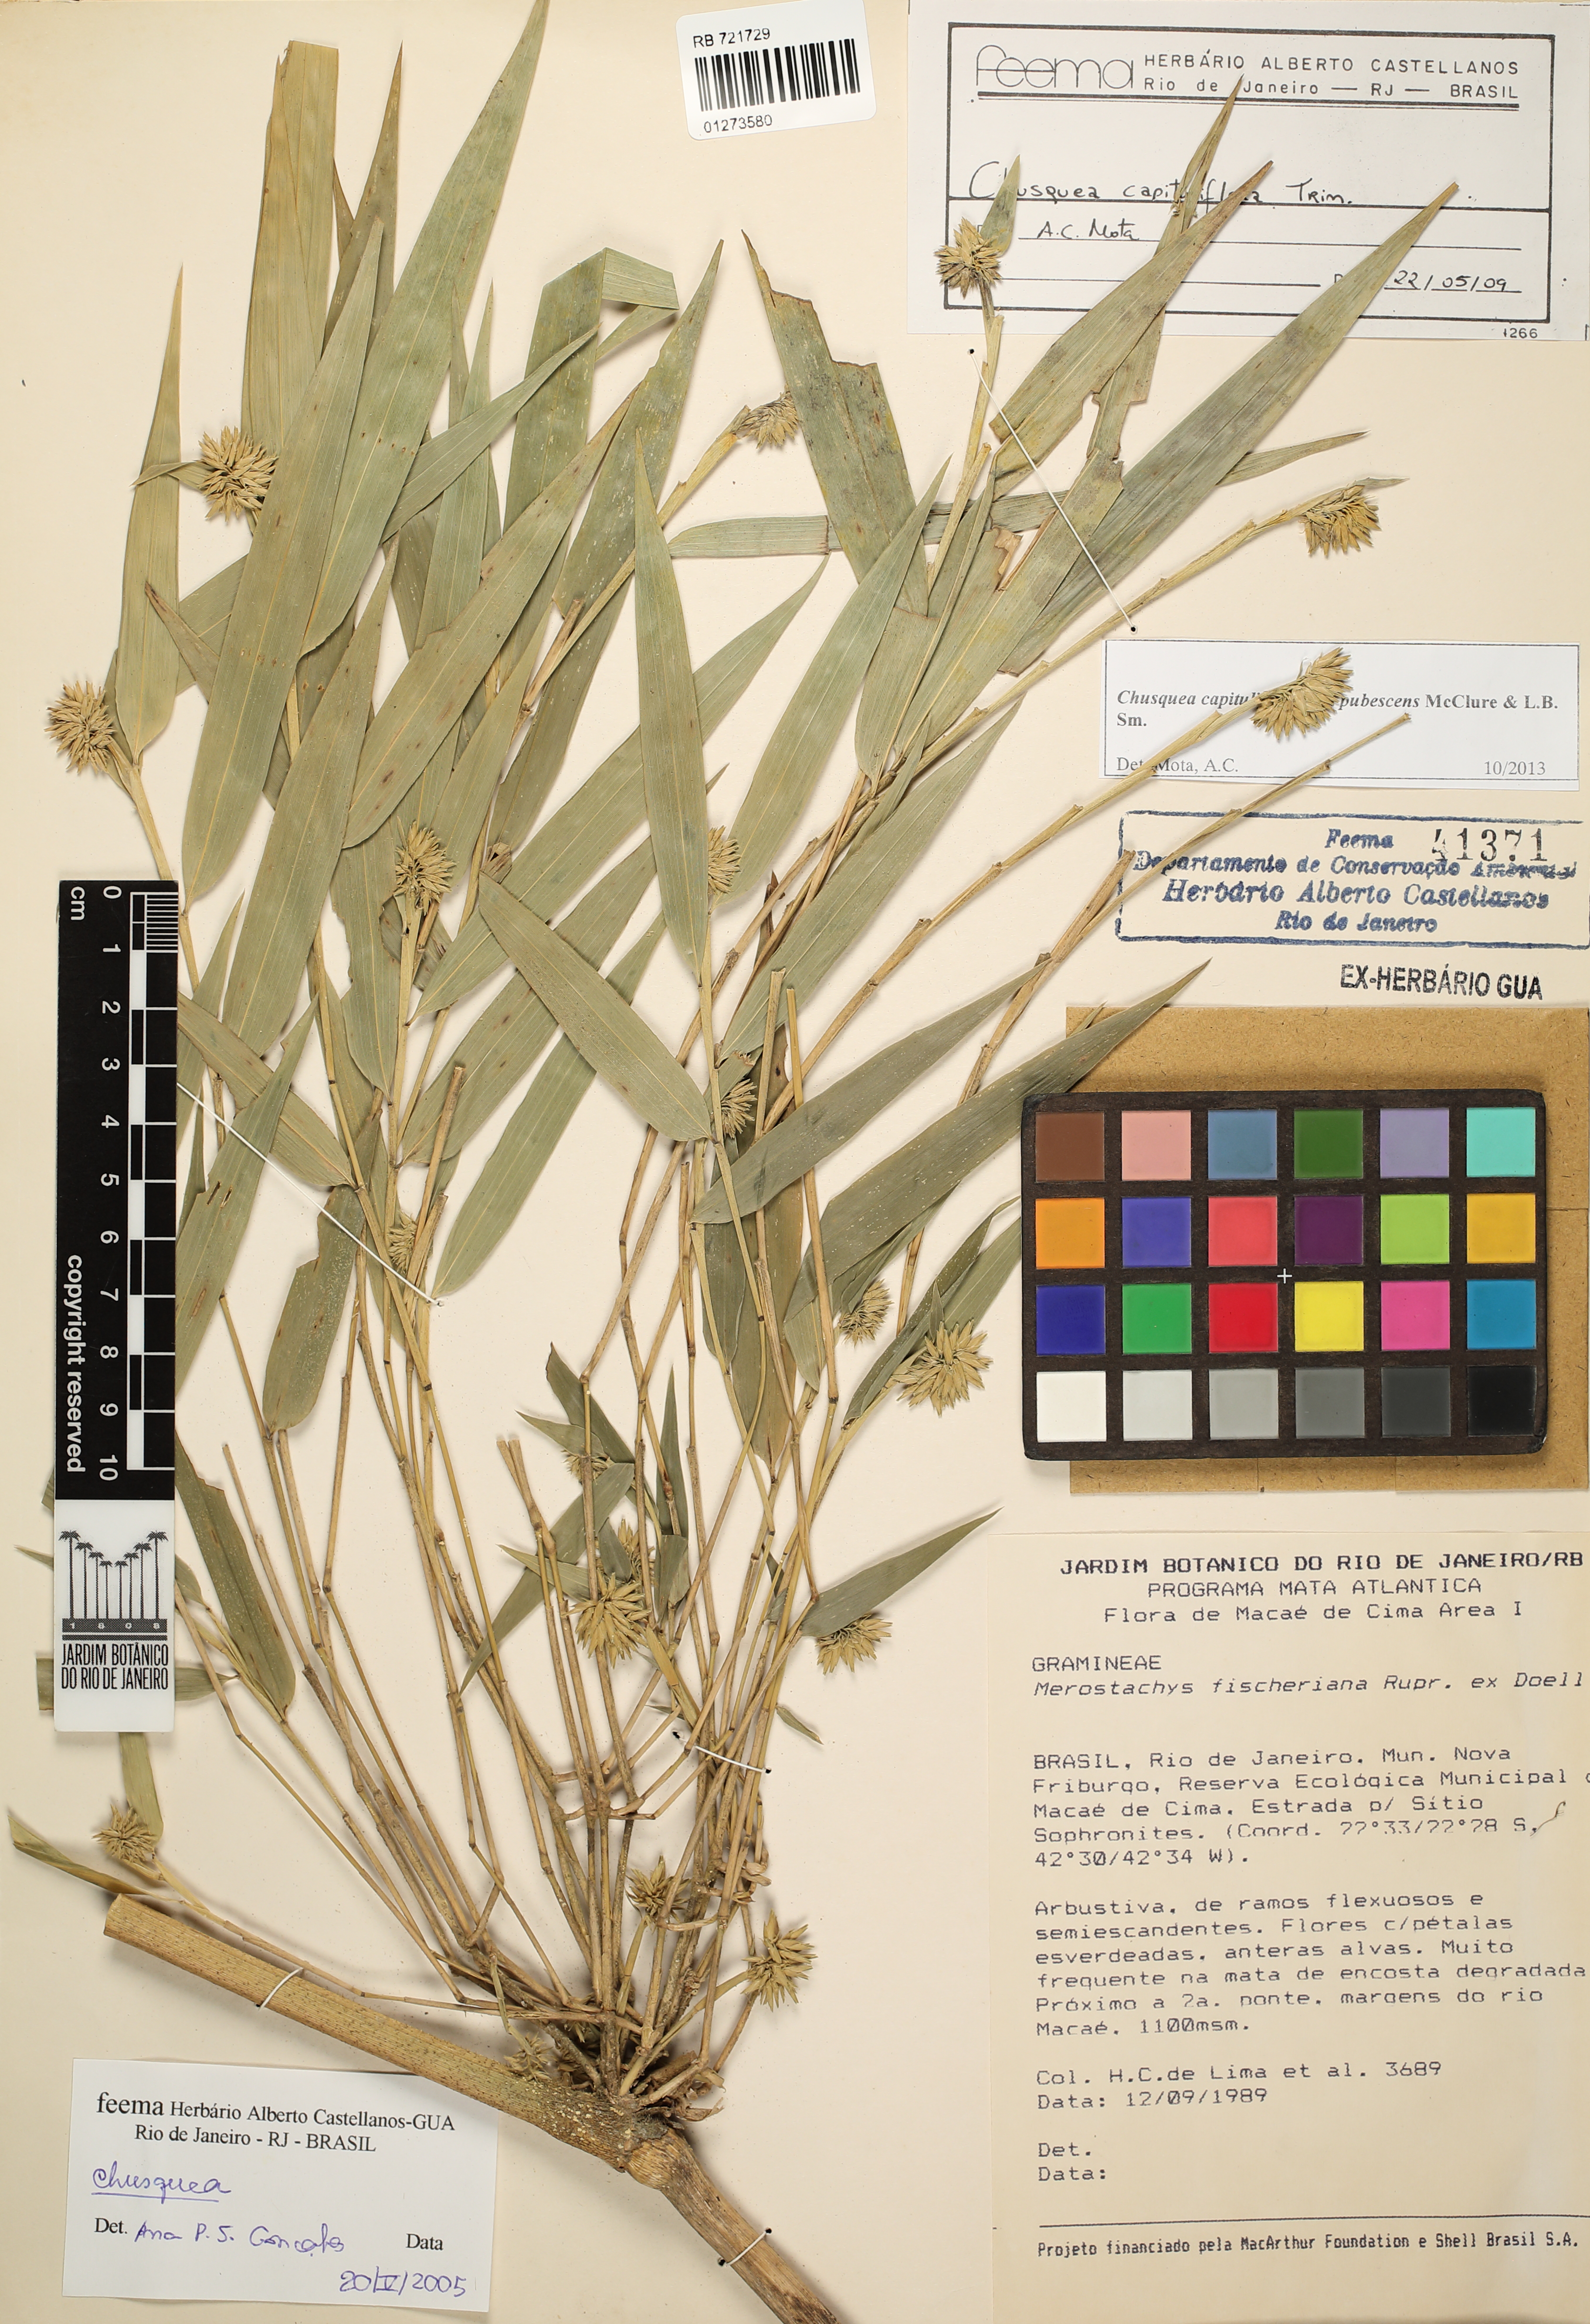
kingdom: Plantae
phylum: Tracheophyta
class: Liliopsida
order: Poales
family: Poaceae
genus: Chusquea
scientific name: Chusquea kleinii
